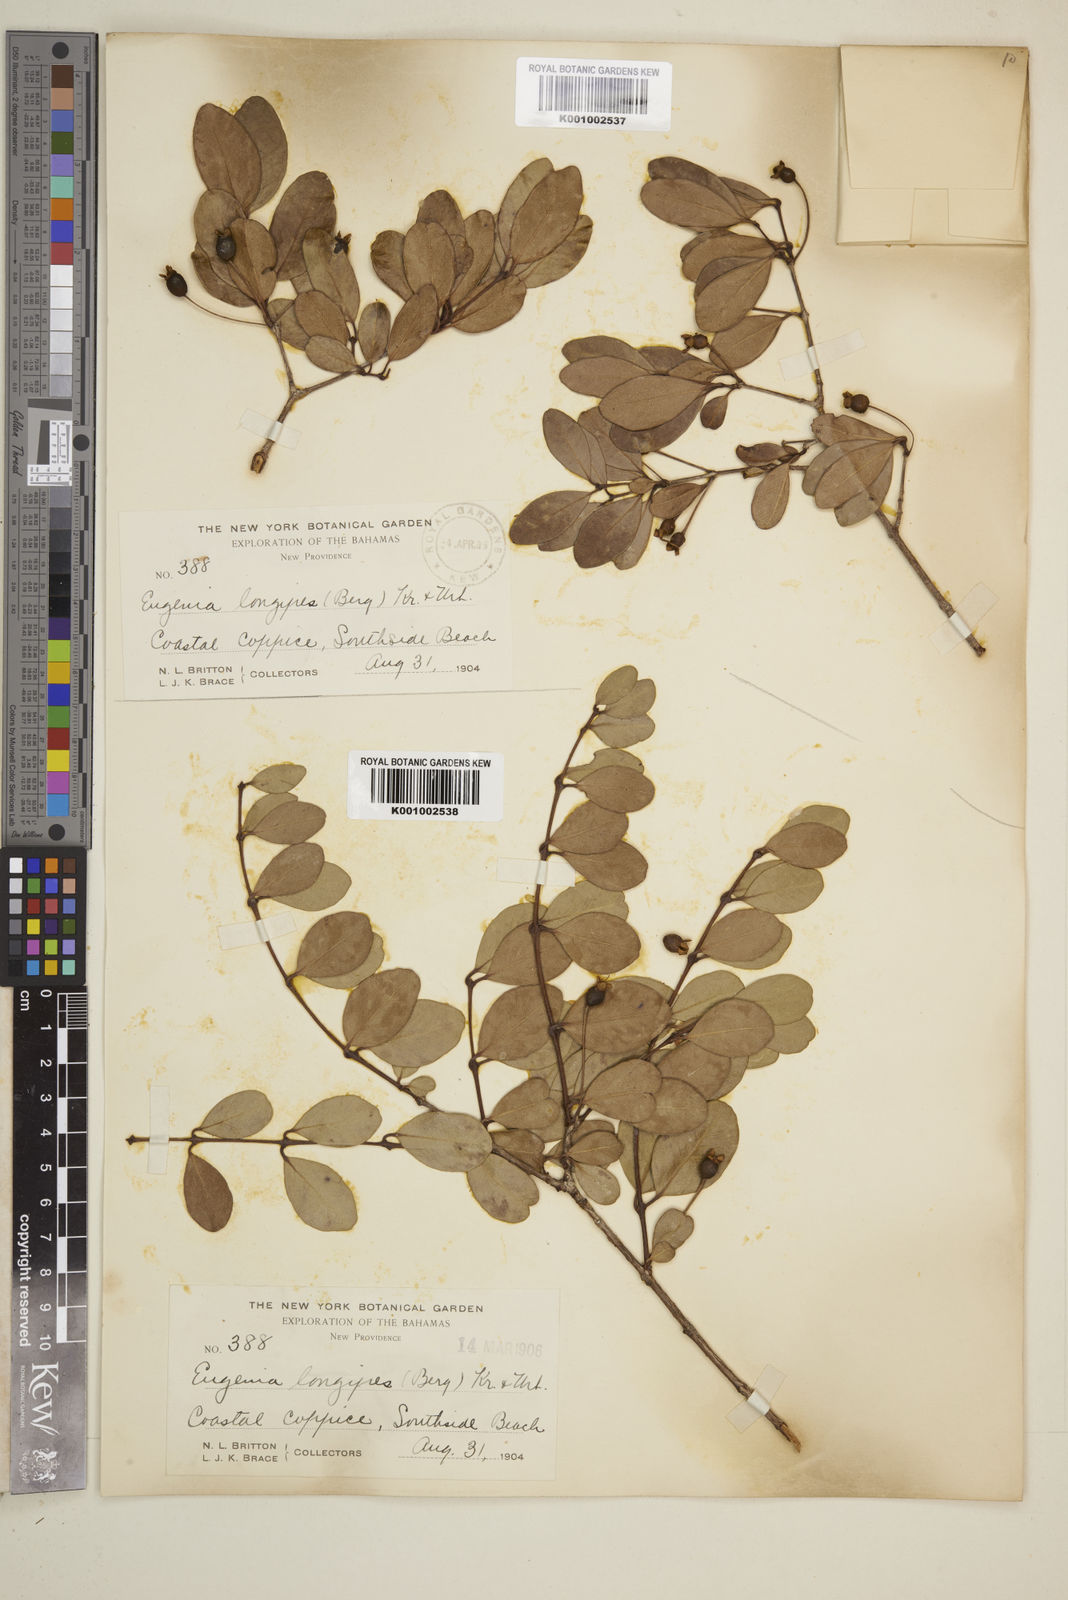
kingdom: Plantae
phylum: Tracheophyta
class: Magnoliopsida
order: Myrtales
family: Myrtaceae
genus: Mosiera
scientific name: Mosiera longipes
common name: Bahama stopper
